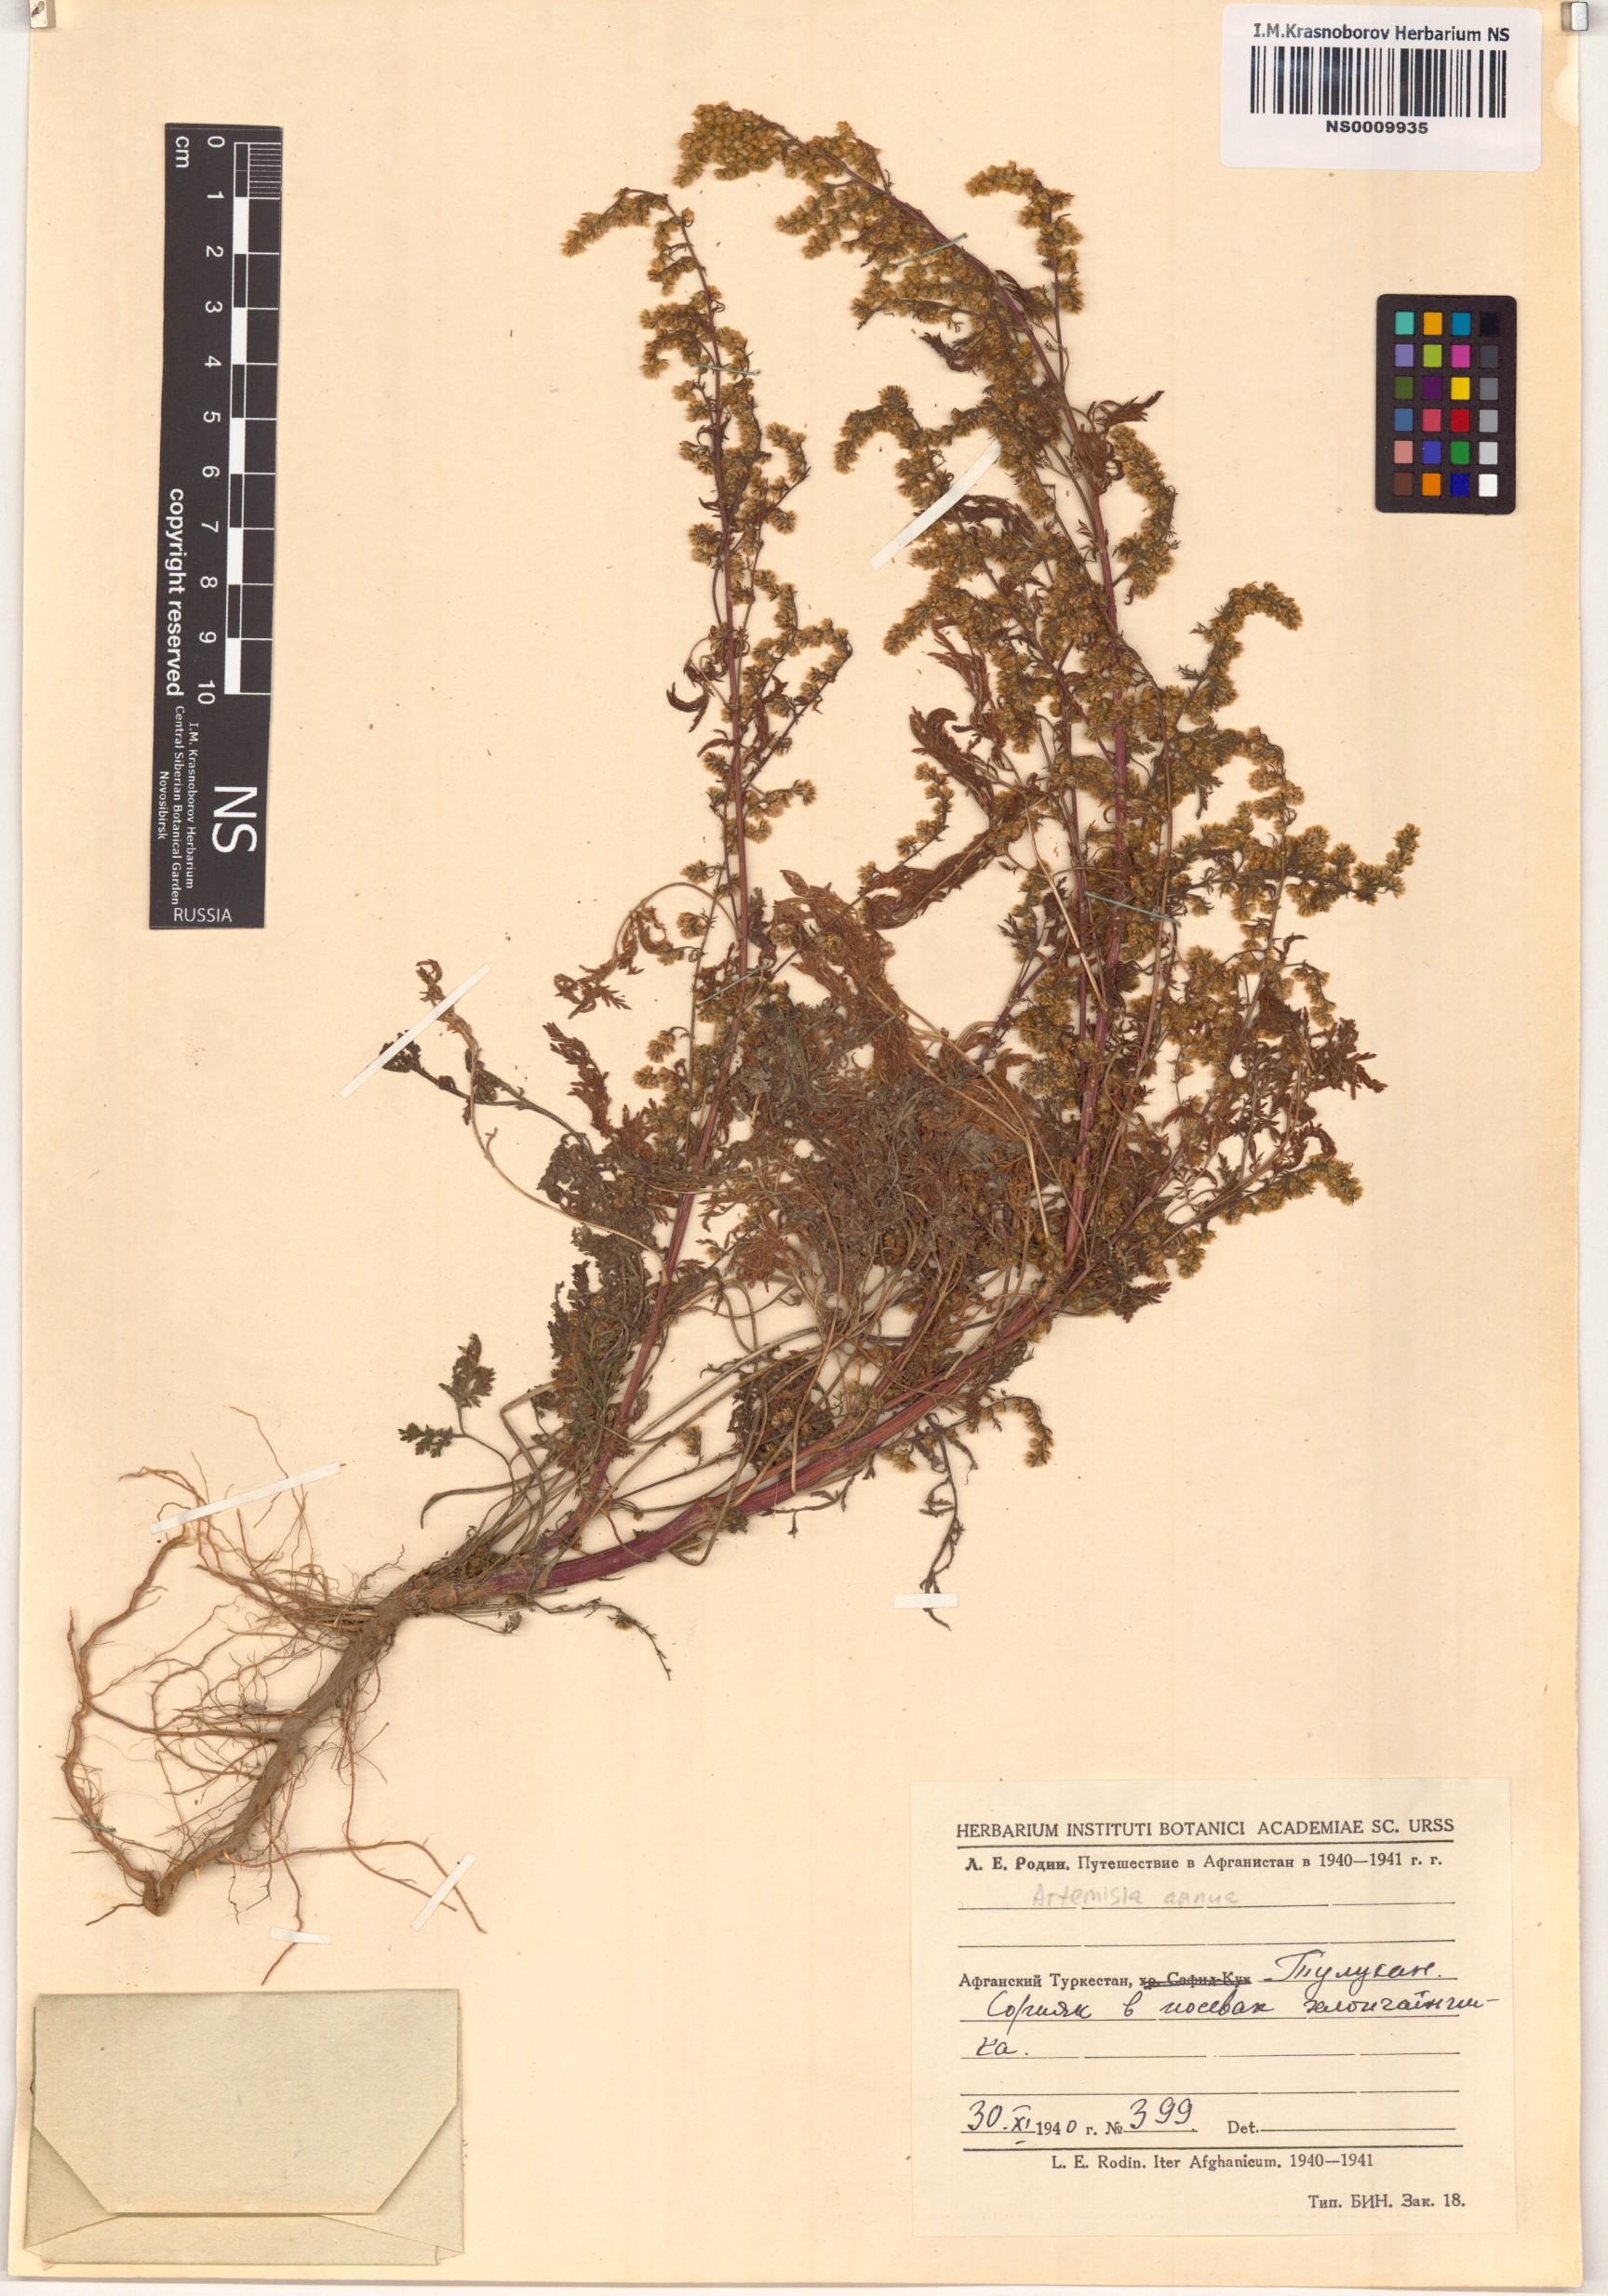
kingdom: Plantae
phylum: Tracheophyta
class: Magnoliopsida
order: Asterales
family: Asteraceae
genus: Artemisia
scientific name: Artemisia annua
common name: Sweet sagewort
